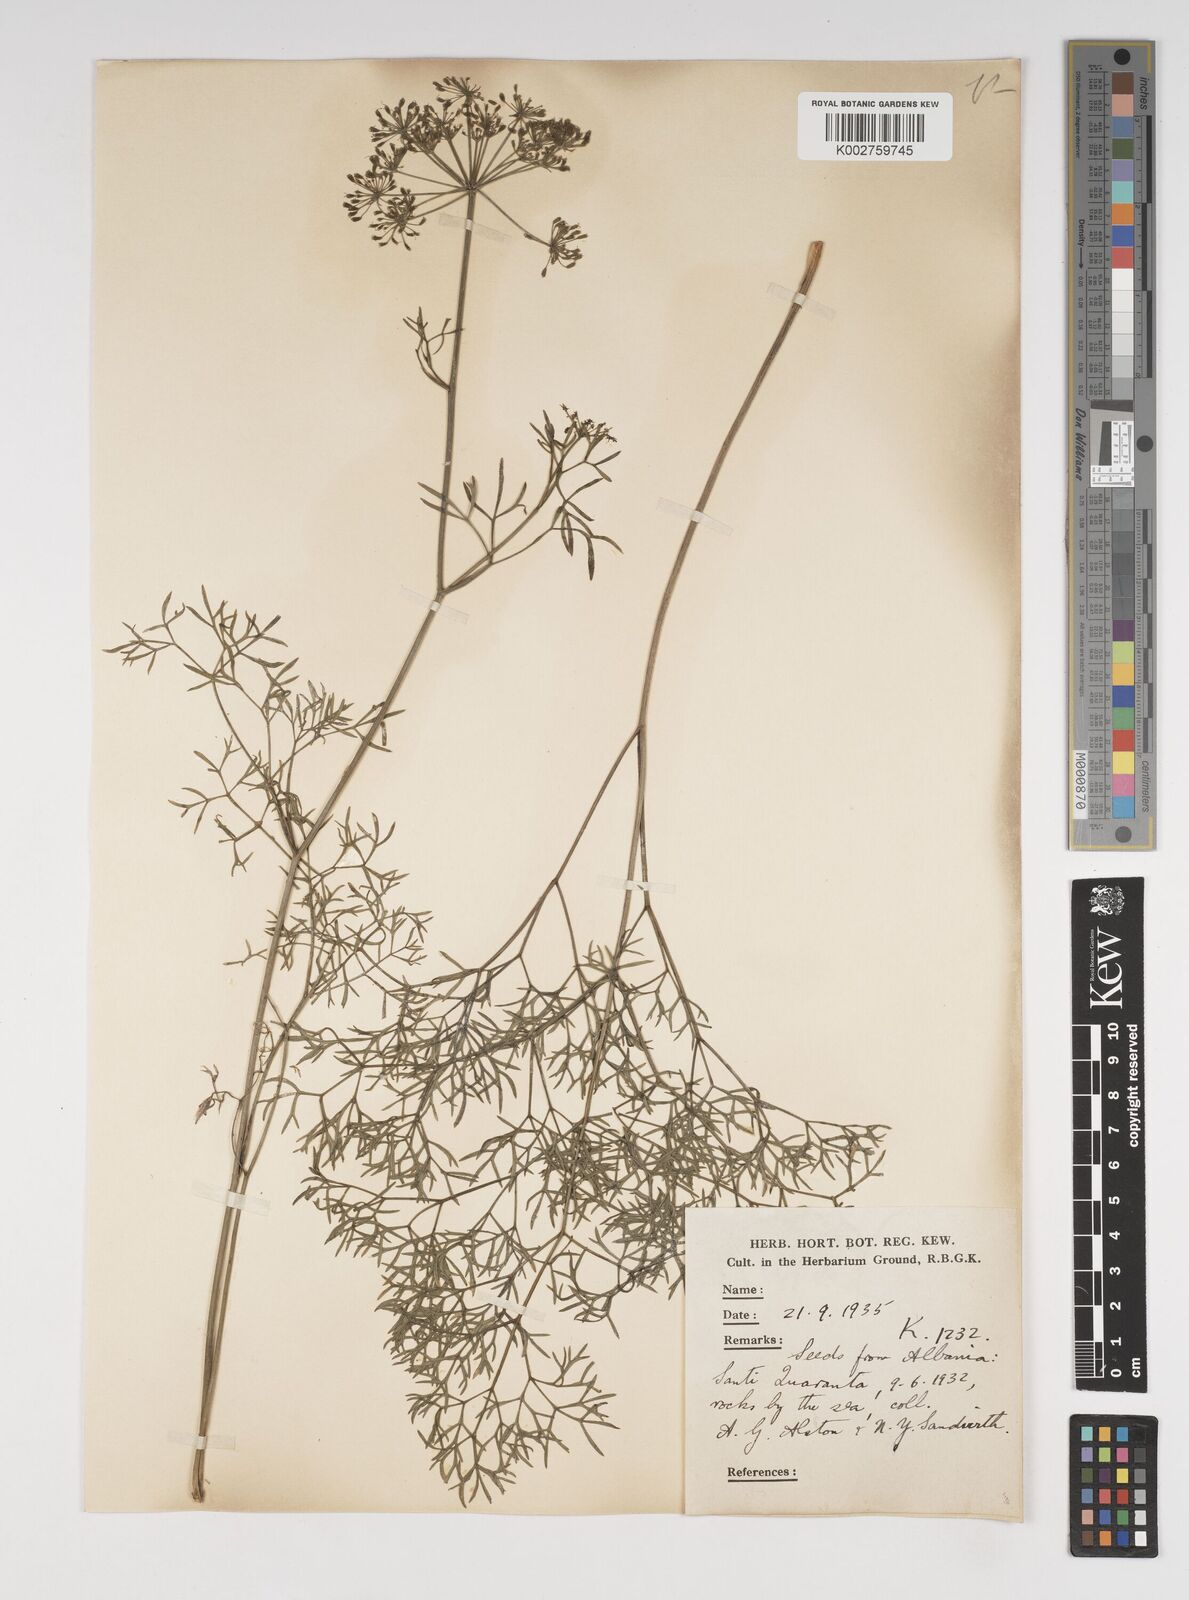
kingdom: Plantae
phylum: Tracheophyta
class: Magnoliopsida
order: Apiales
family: Apiaceae
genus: Katapsuxis
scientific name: Katapsuxis silaifolia
